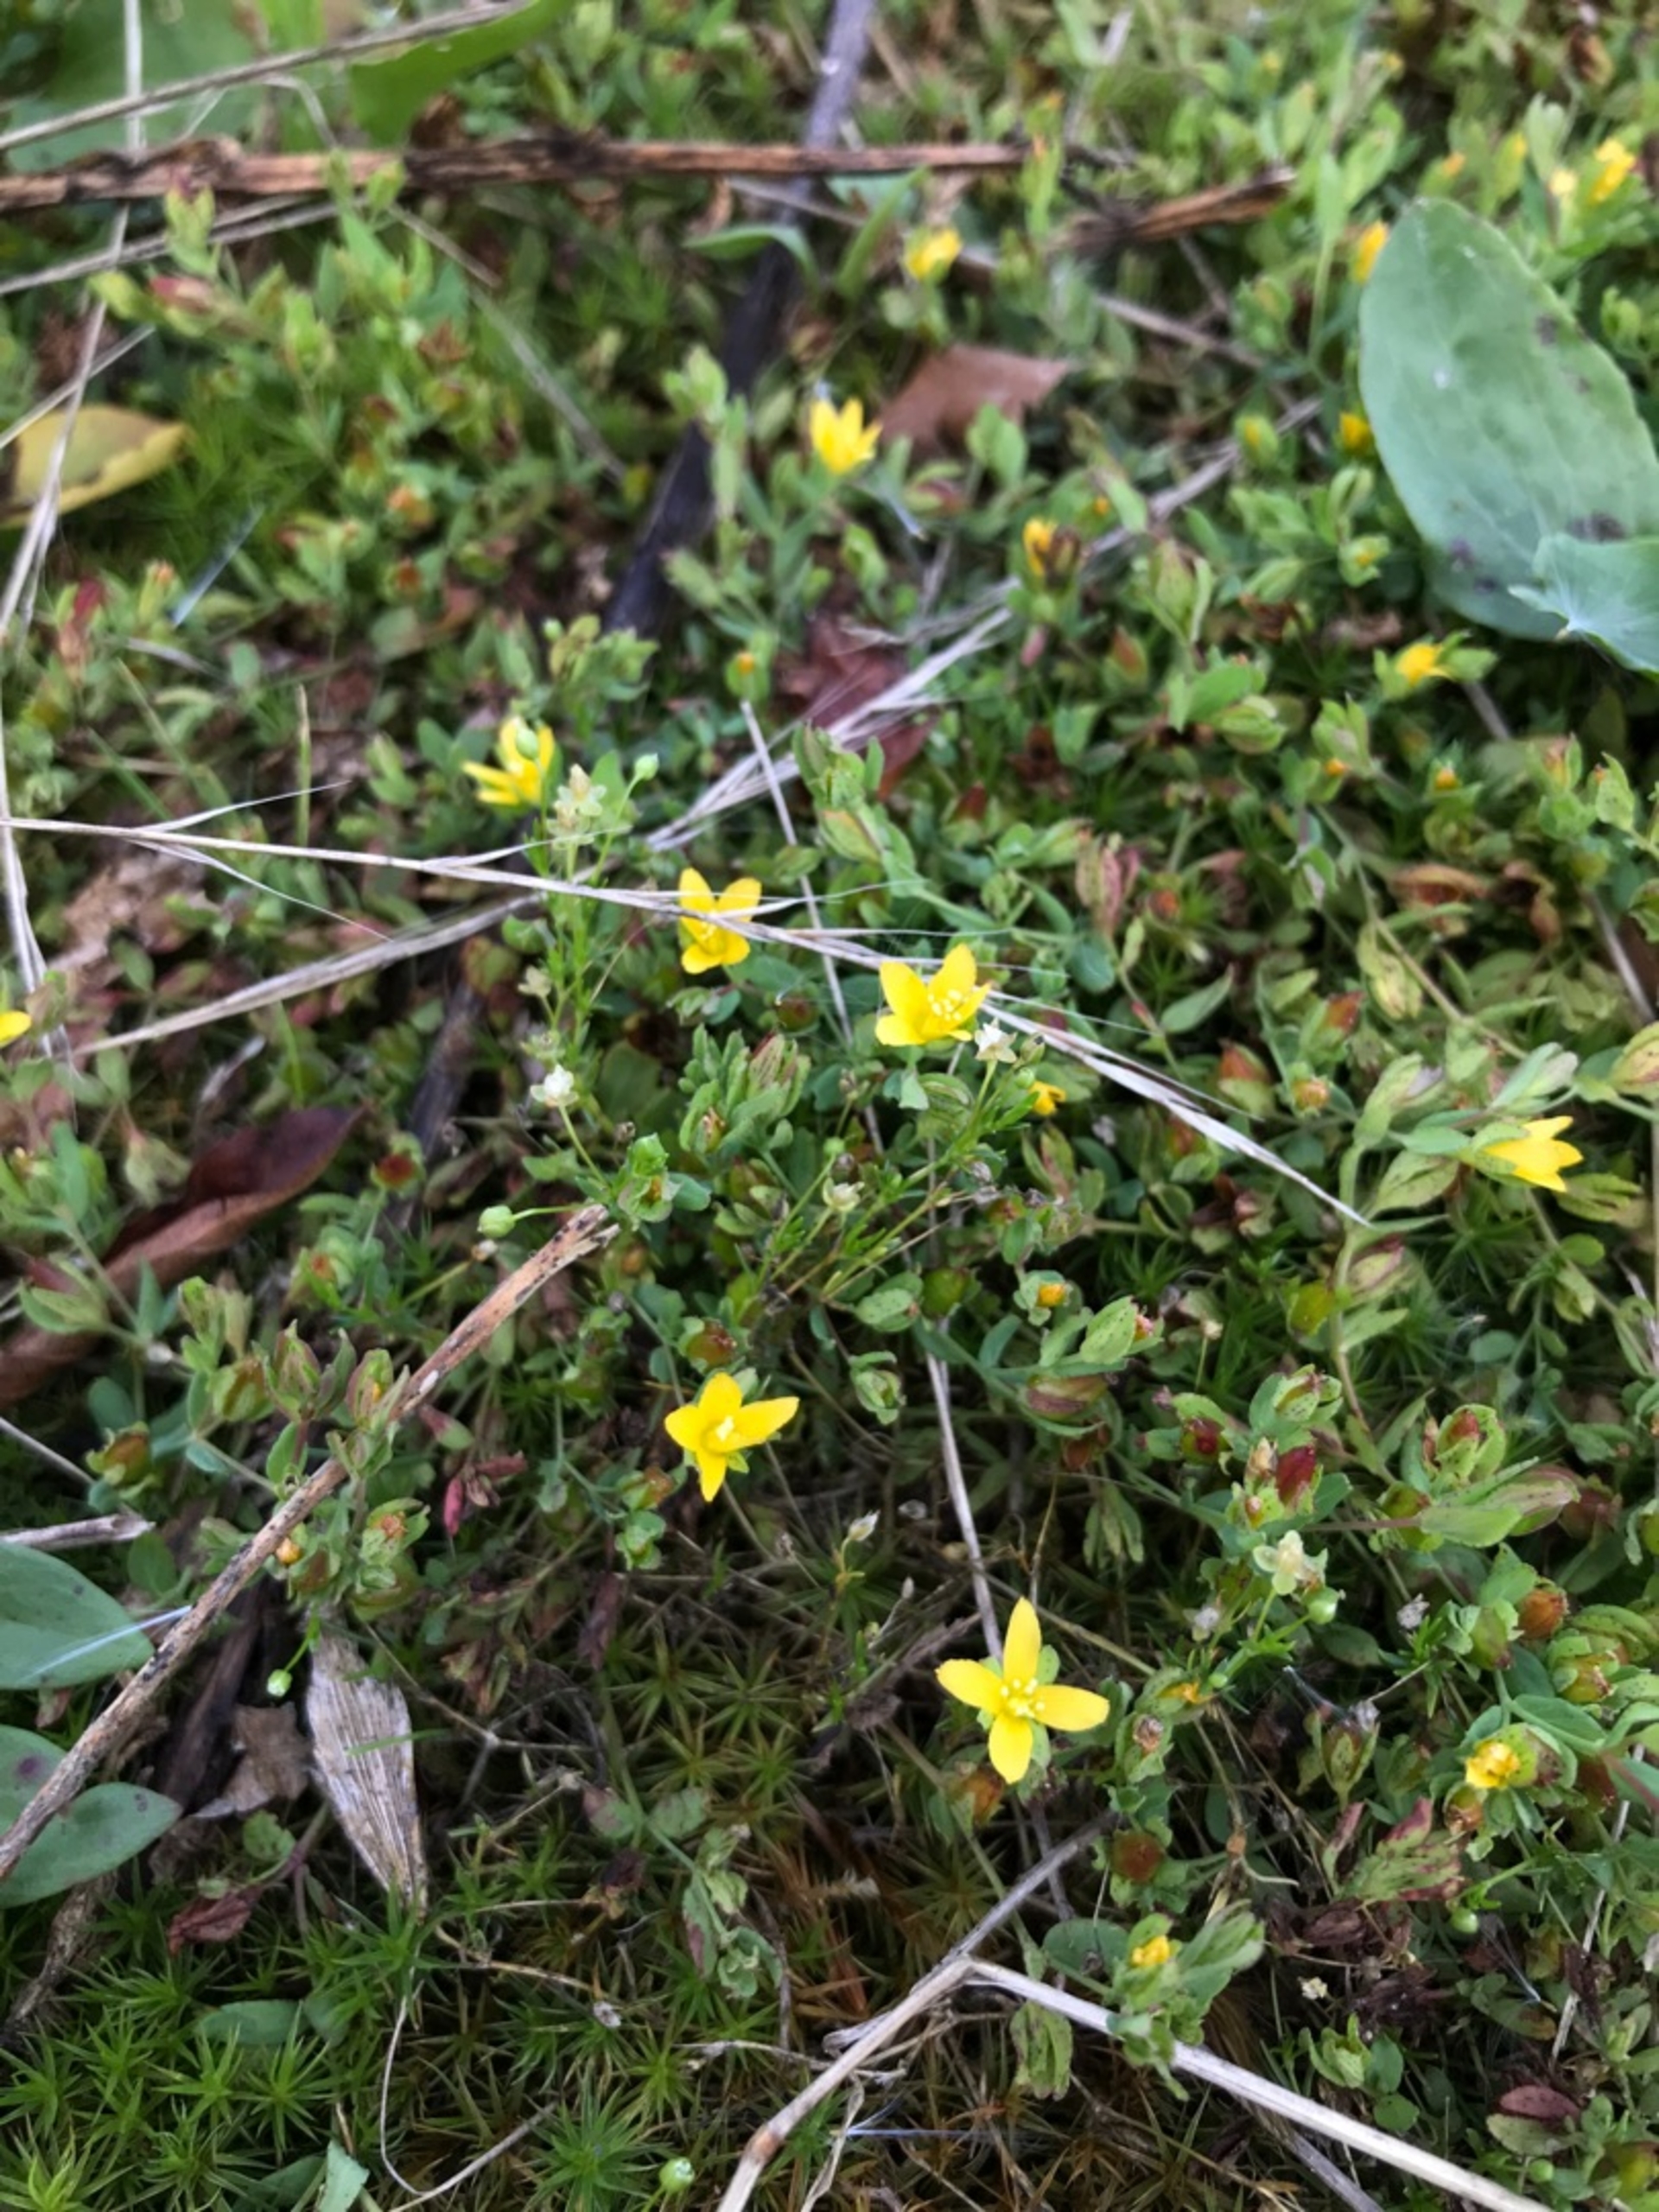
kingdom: Plantae
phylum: Tracheophyta
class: Magnoliopsida
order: Malpighiales
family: Hypericaceae
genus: Hypericum
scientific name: Hypericum humifusum
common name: Dværg-perikon
